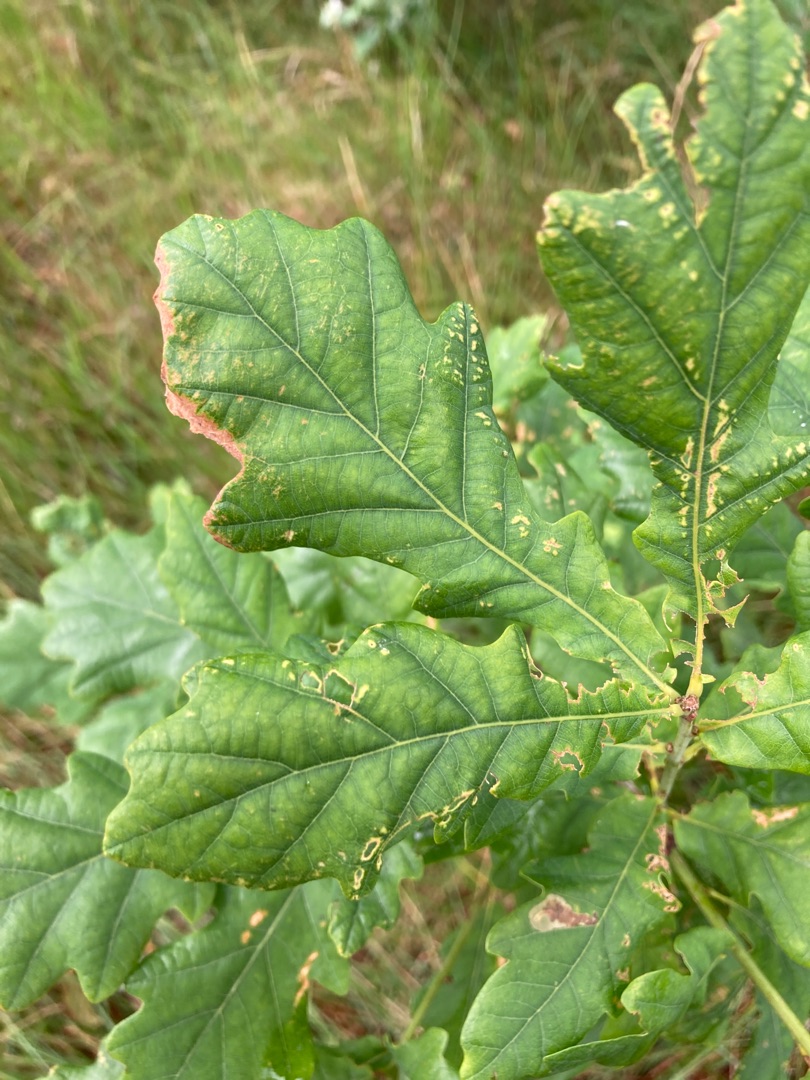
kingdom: Plantae
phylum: Tracheophyta
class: Magnoliopsida
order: Fagales
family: Fagaceae
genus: Quercus
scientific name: Quercus robur
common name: Stilk-eg/almindelig eg
